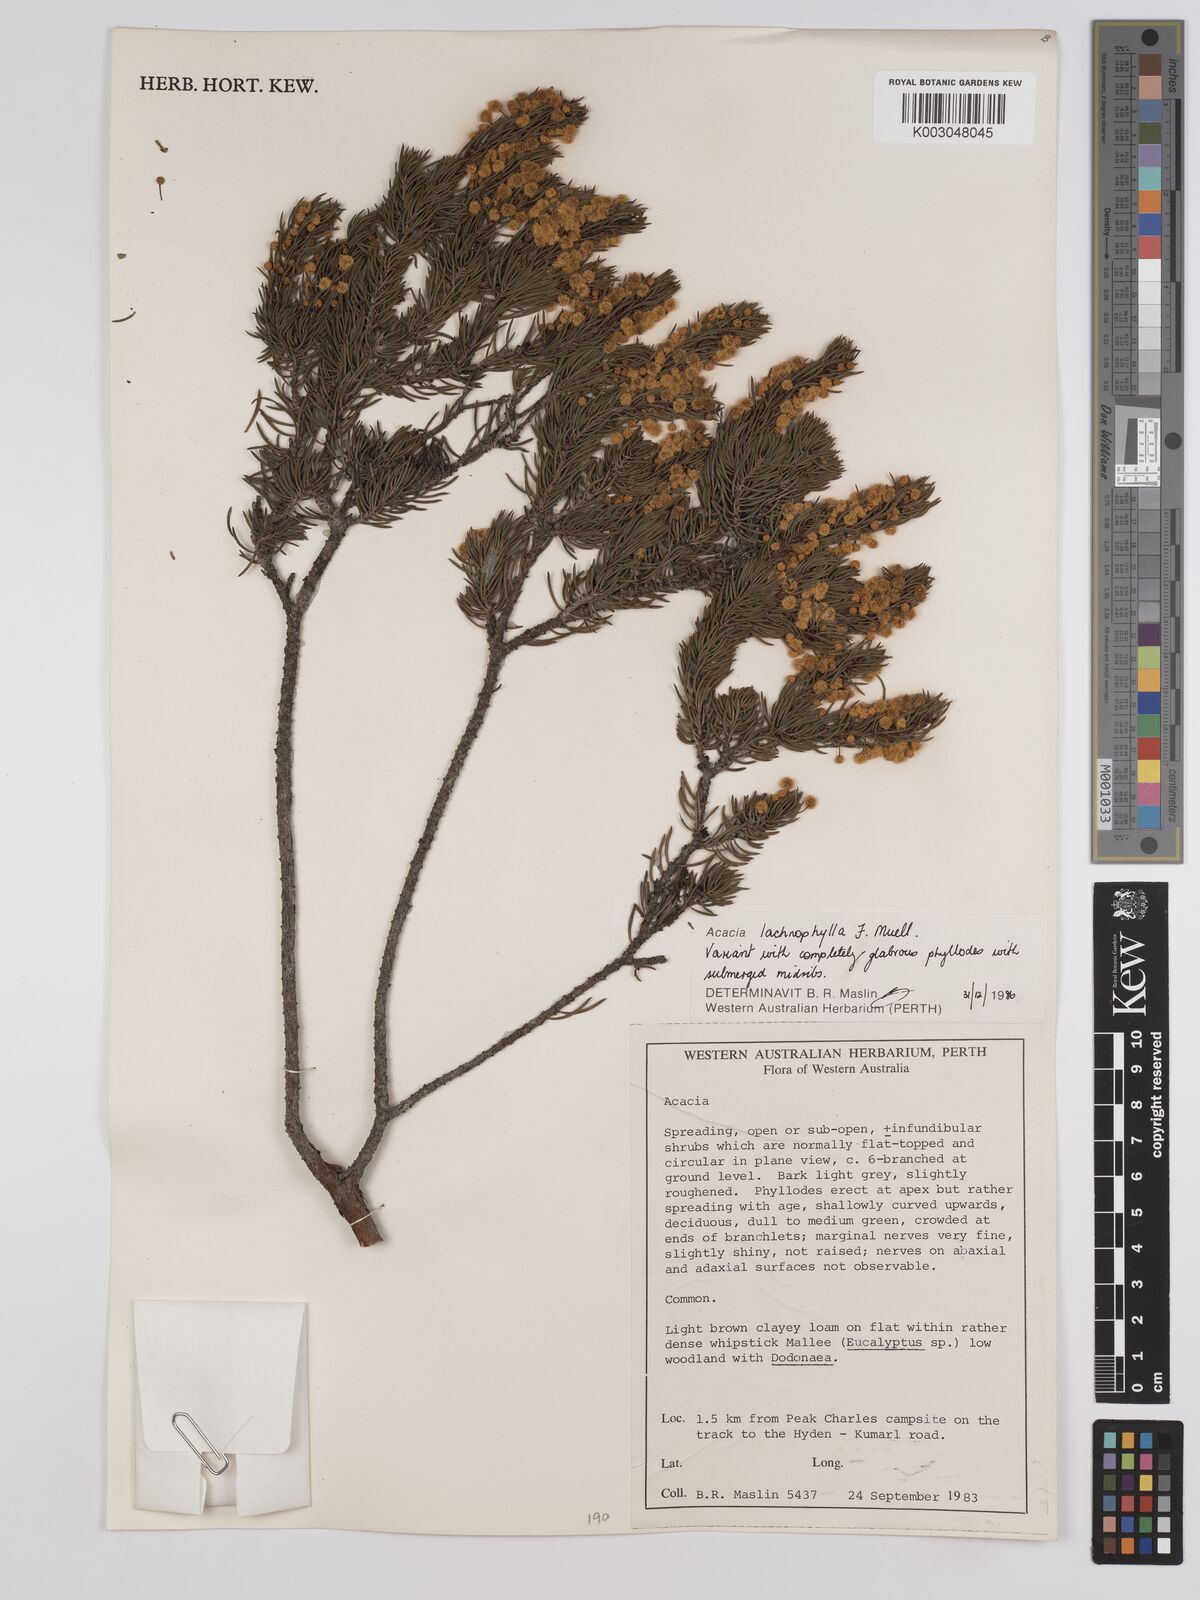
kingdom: Plantae
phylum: Tracheophyta
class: Magnoliopsida
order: Fabales
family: Fabaceae
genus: Acacia
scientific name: Acacia lachnophylla
